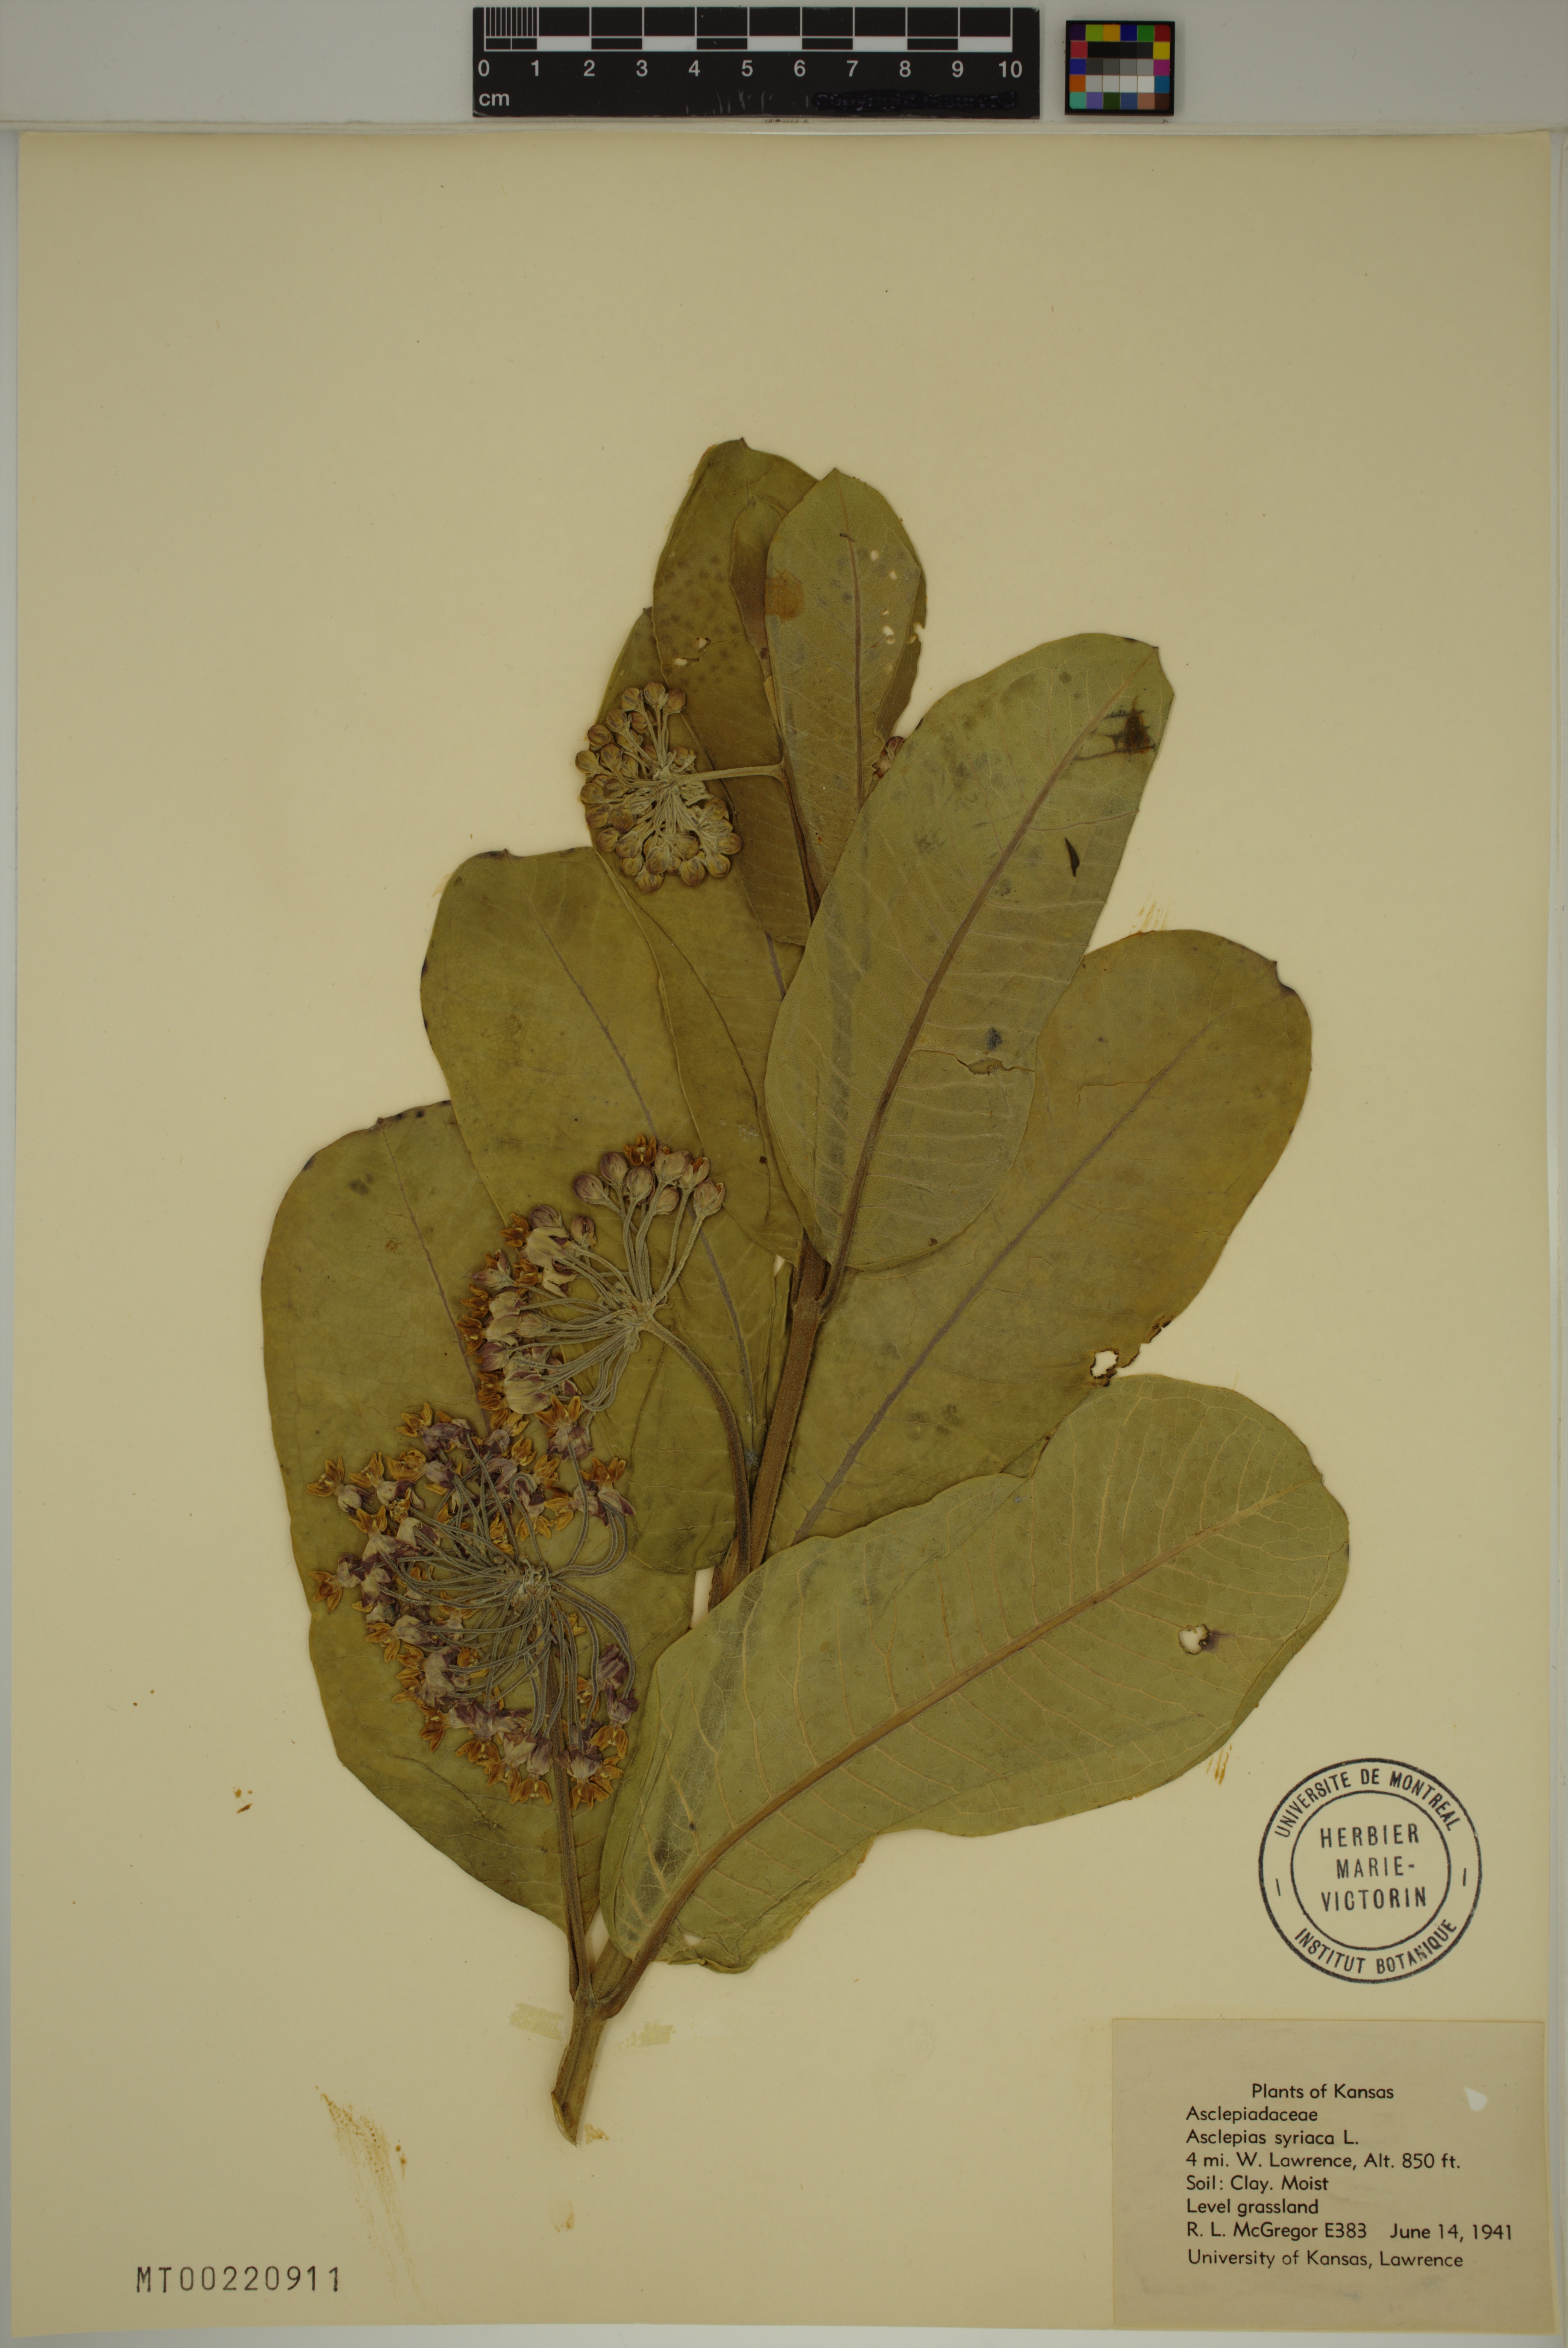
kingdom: Plantae
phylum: Tracheophyta
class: Magnoliopsida
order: Gentianales
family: Apocynaceae
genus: Asclepias
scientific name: Asclepias syriaca
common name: Common milkweed
